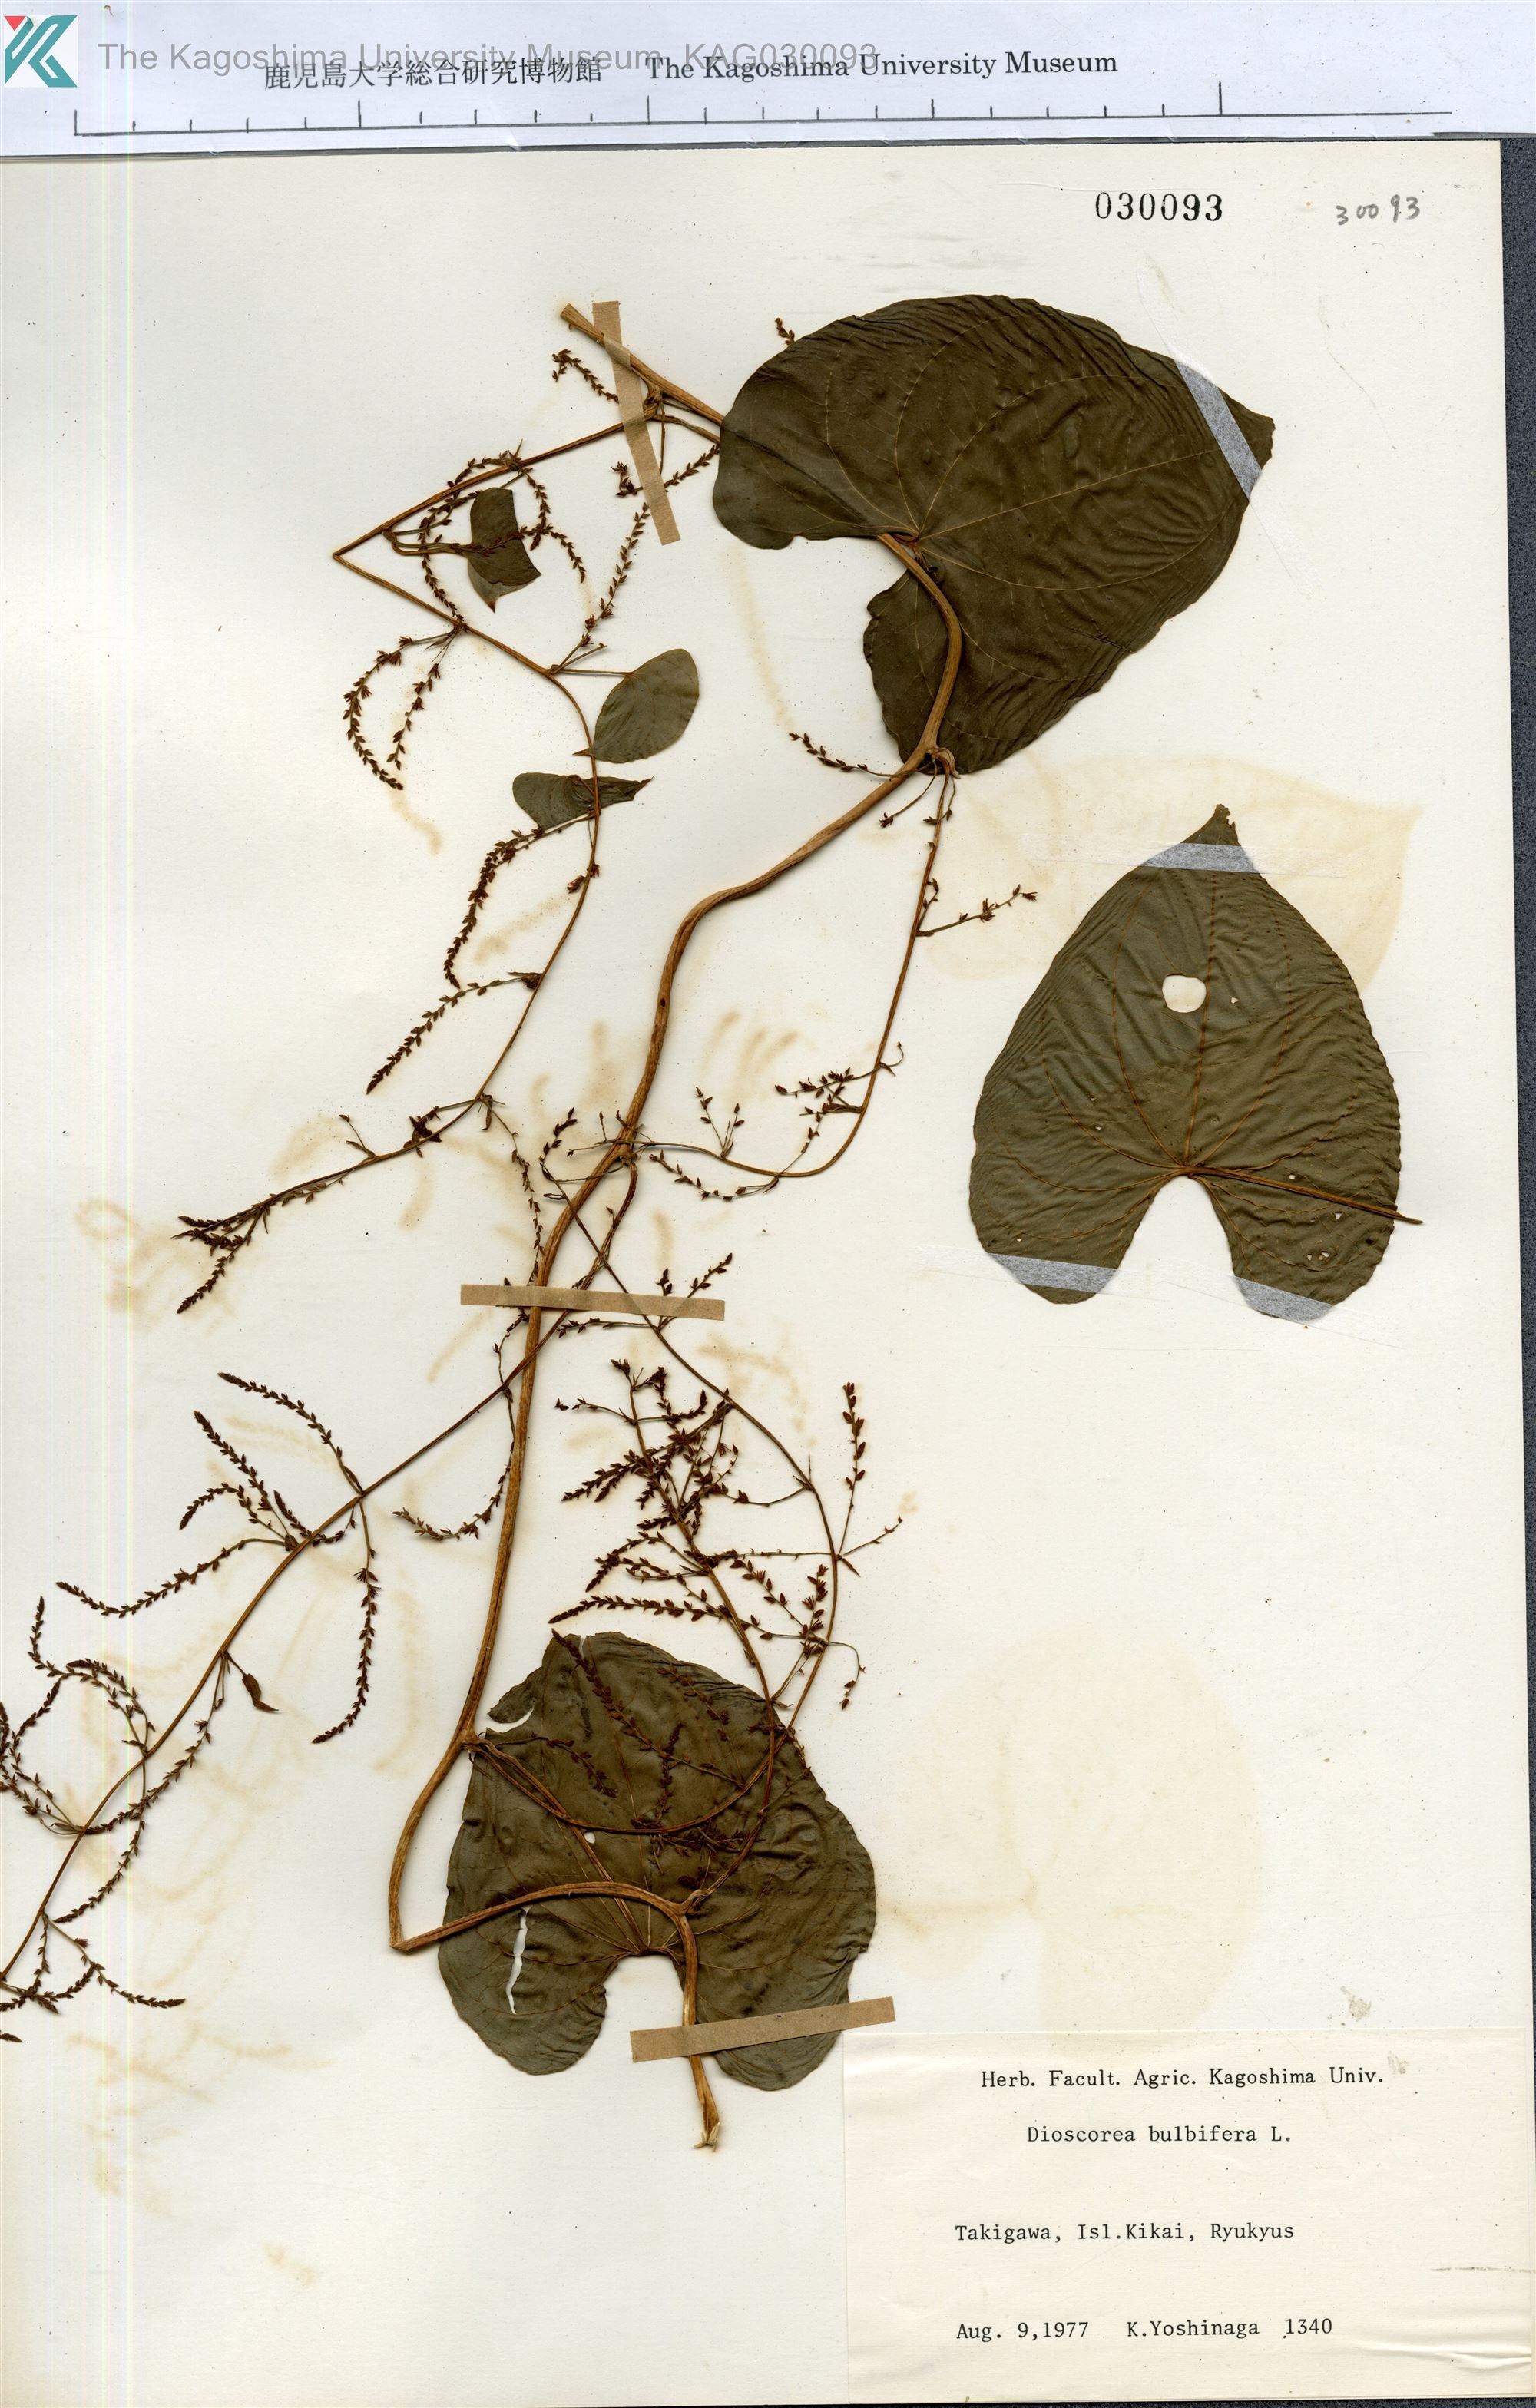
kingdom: Plantae
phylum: Tracheophyta
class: Liliopsida
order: Dioscoreales
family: Dioscoreaceae
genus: Dioscorea
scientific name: Dioscorea bulbifera
